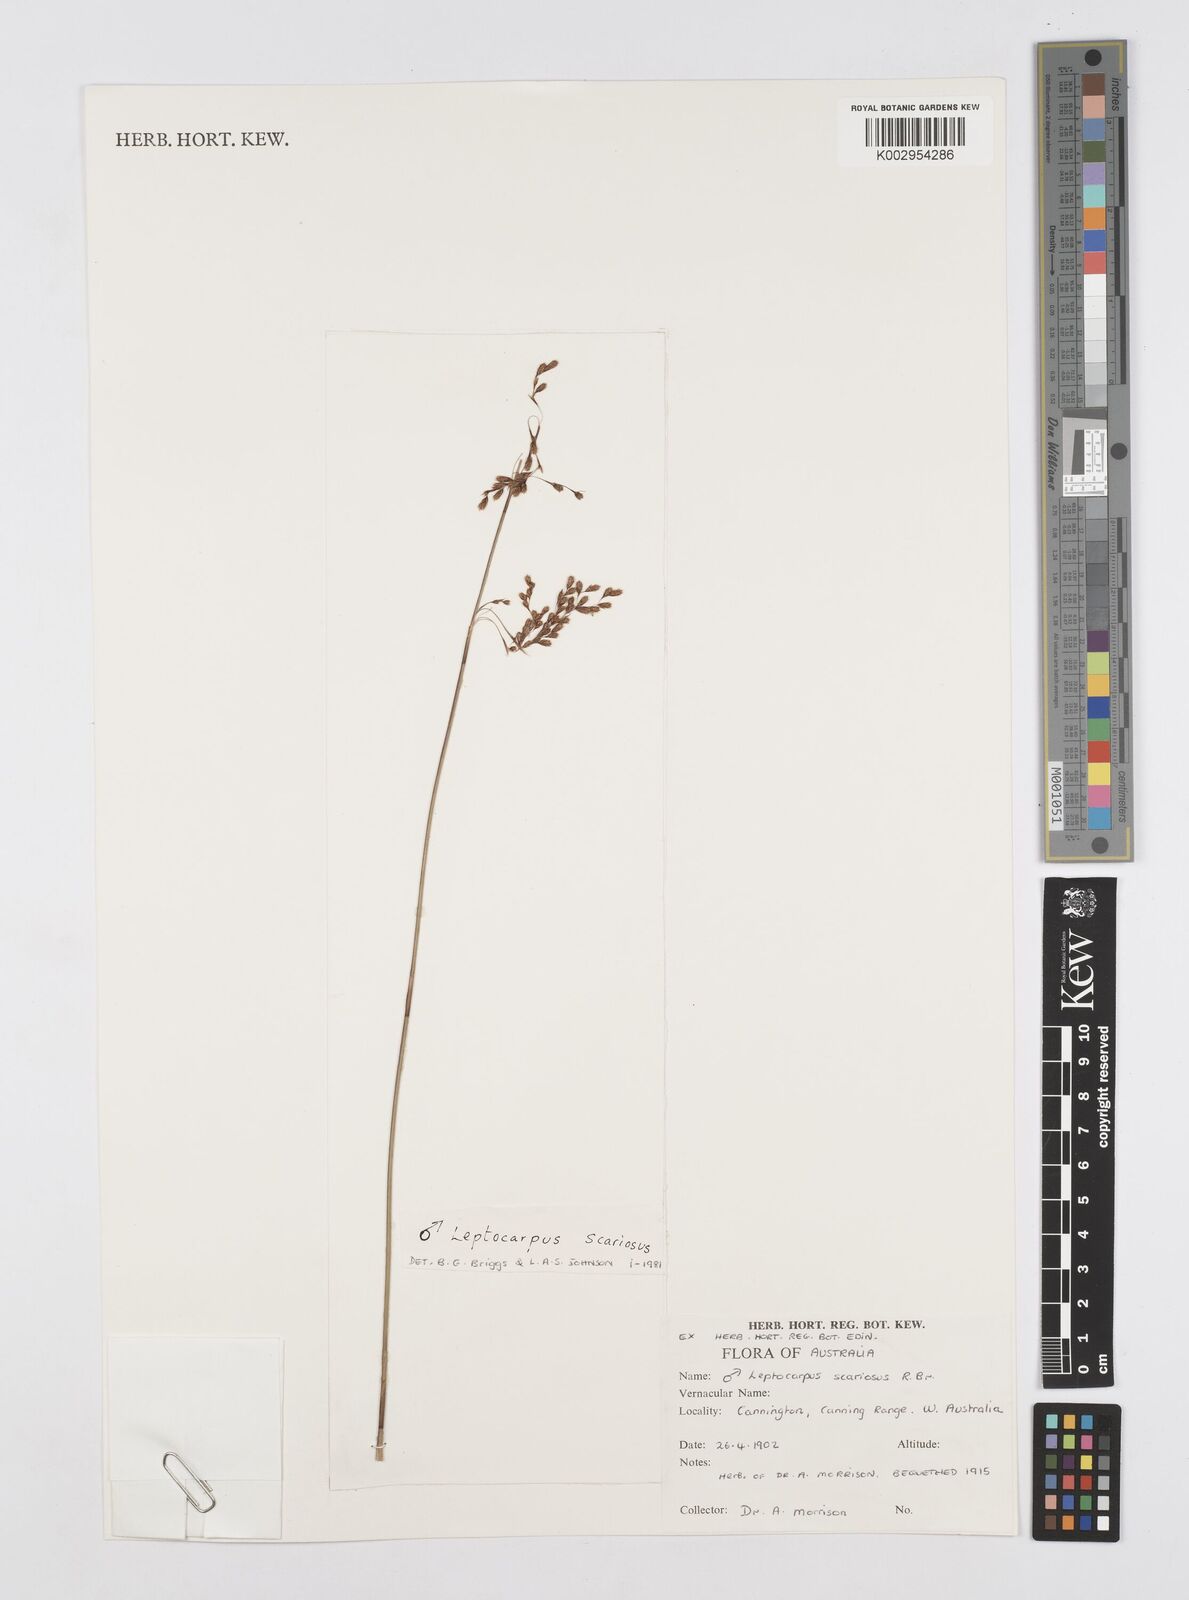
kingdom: Plantae
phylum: Tracheophyta
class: Liliopsida
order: Poales
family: Restionaceae
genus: Leptocarpus
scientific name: Leptocarpus scariosus
